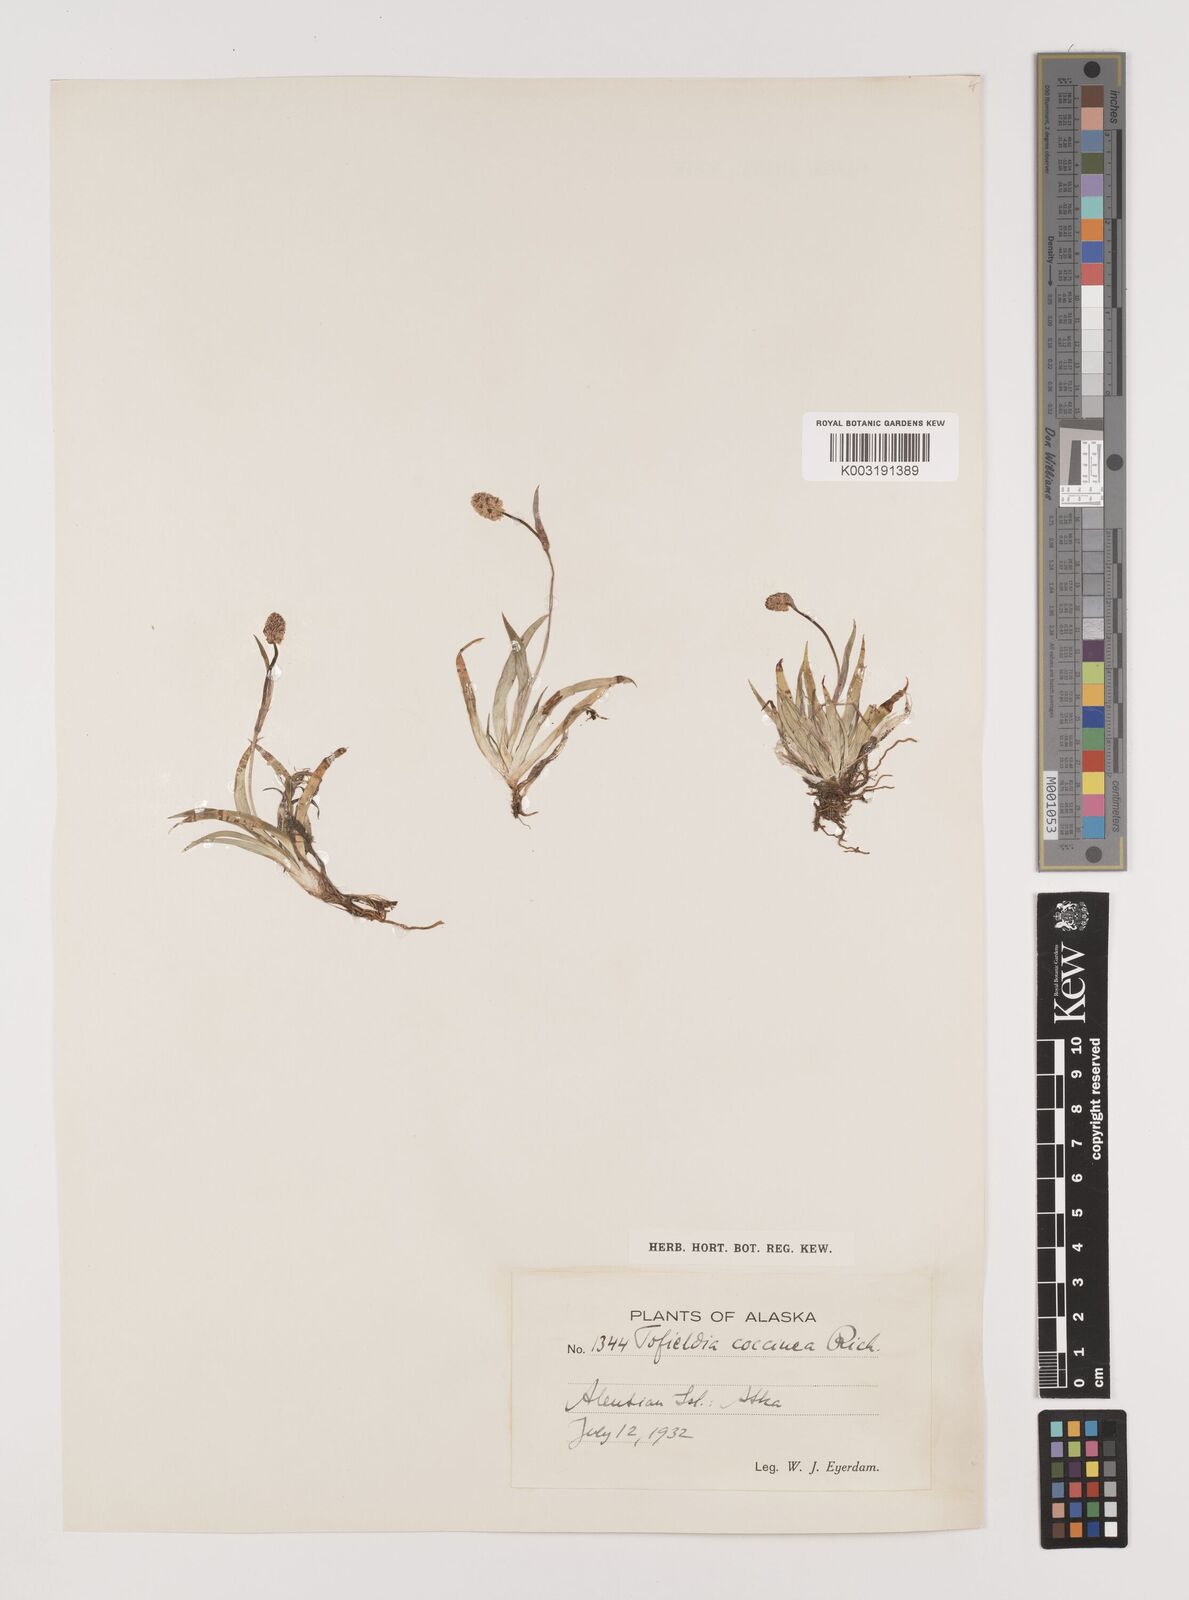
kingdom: Plantae
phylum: Tracheophyta
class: Liliopsida
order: Alismatales
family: Tofieldiaceae
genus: Tofieldia
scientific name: Tofieldia coccinea
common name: Northern false asphodel
